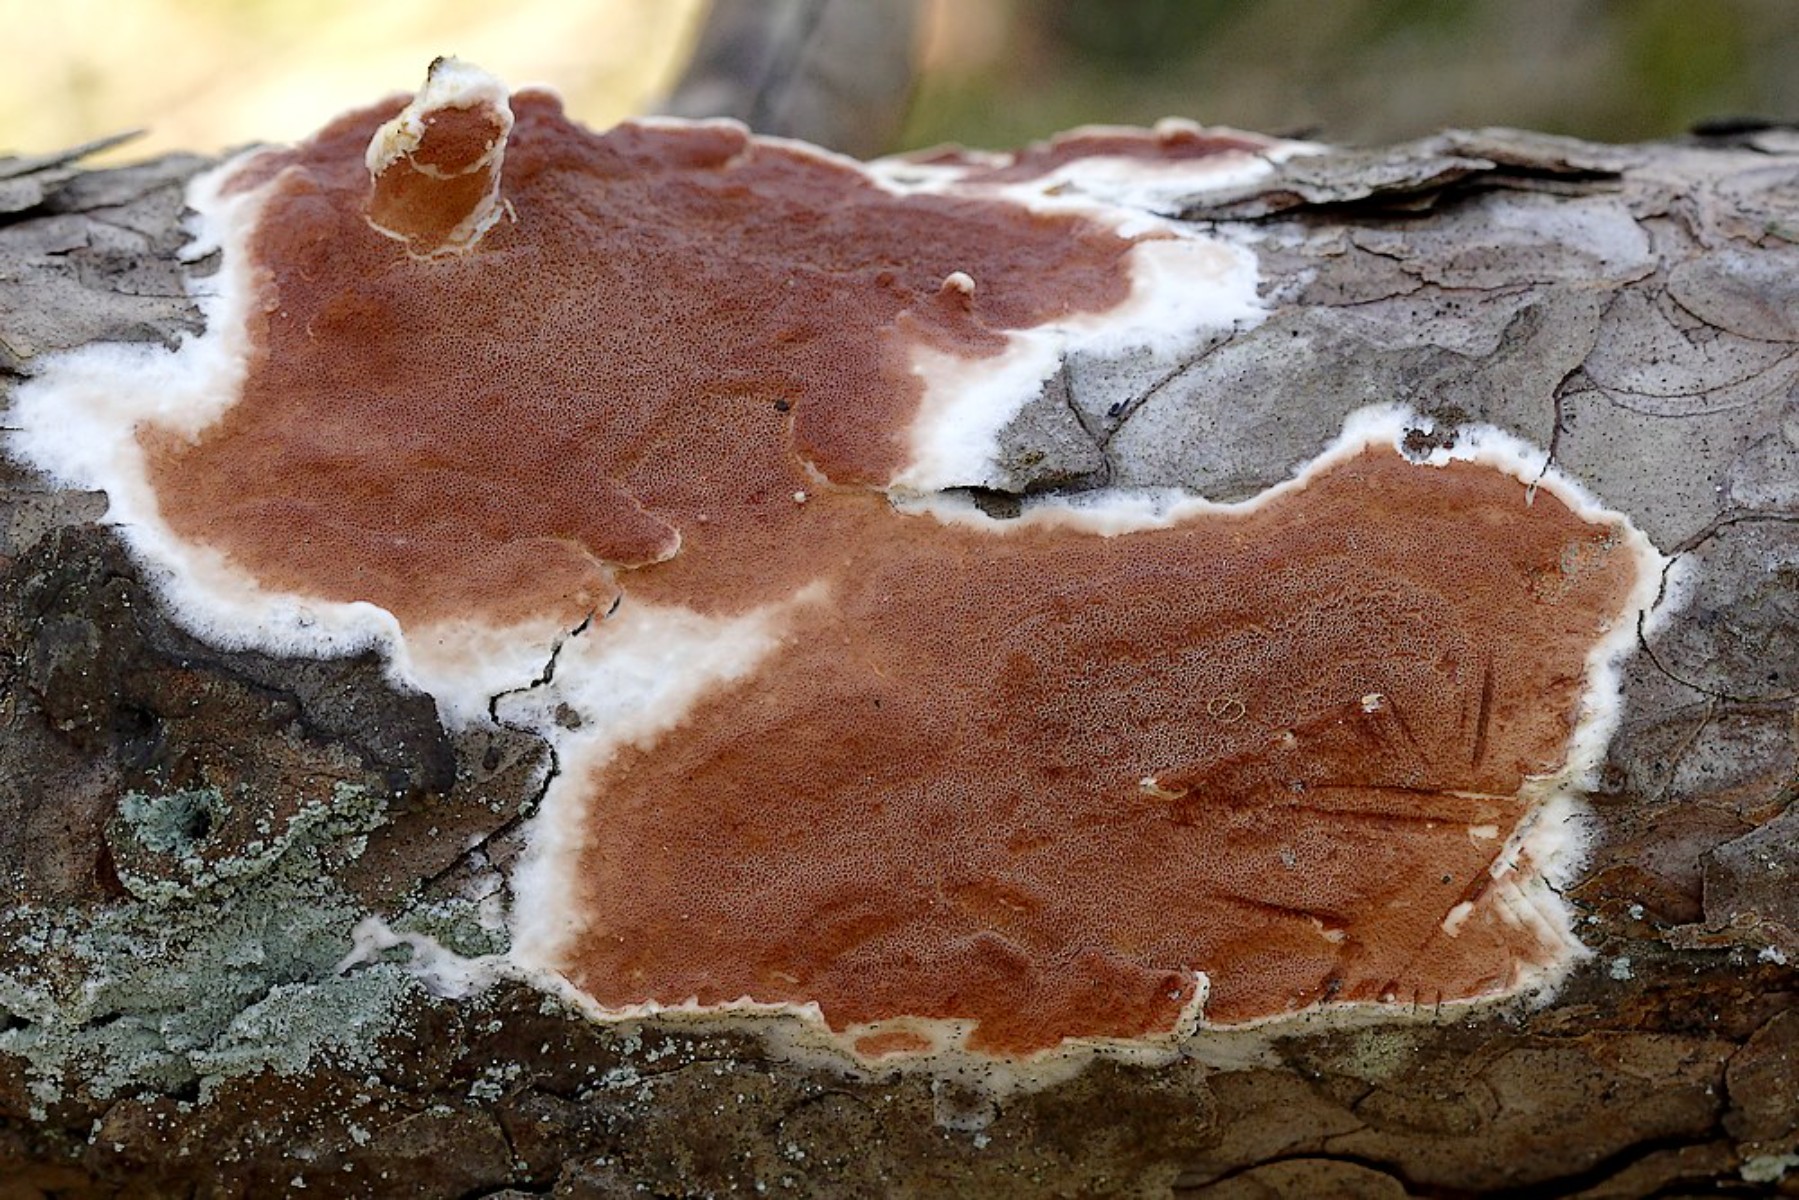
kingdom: Fungi
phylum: Basidiomycota
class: Agaricomycetes
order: Polyporales
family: Irpicaceae
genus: Meruliopsis
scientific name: Meruliopsis taxicola
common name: purpurbrun foldporesvamp
